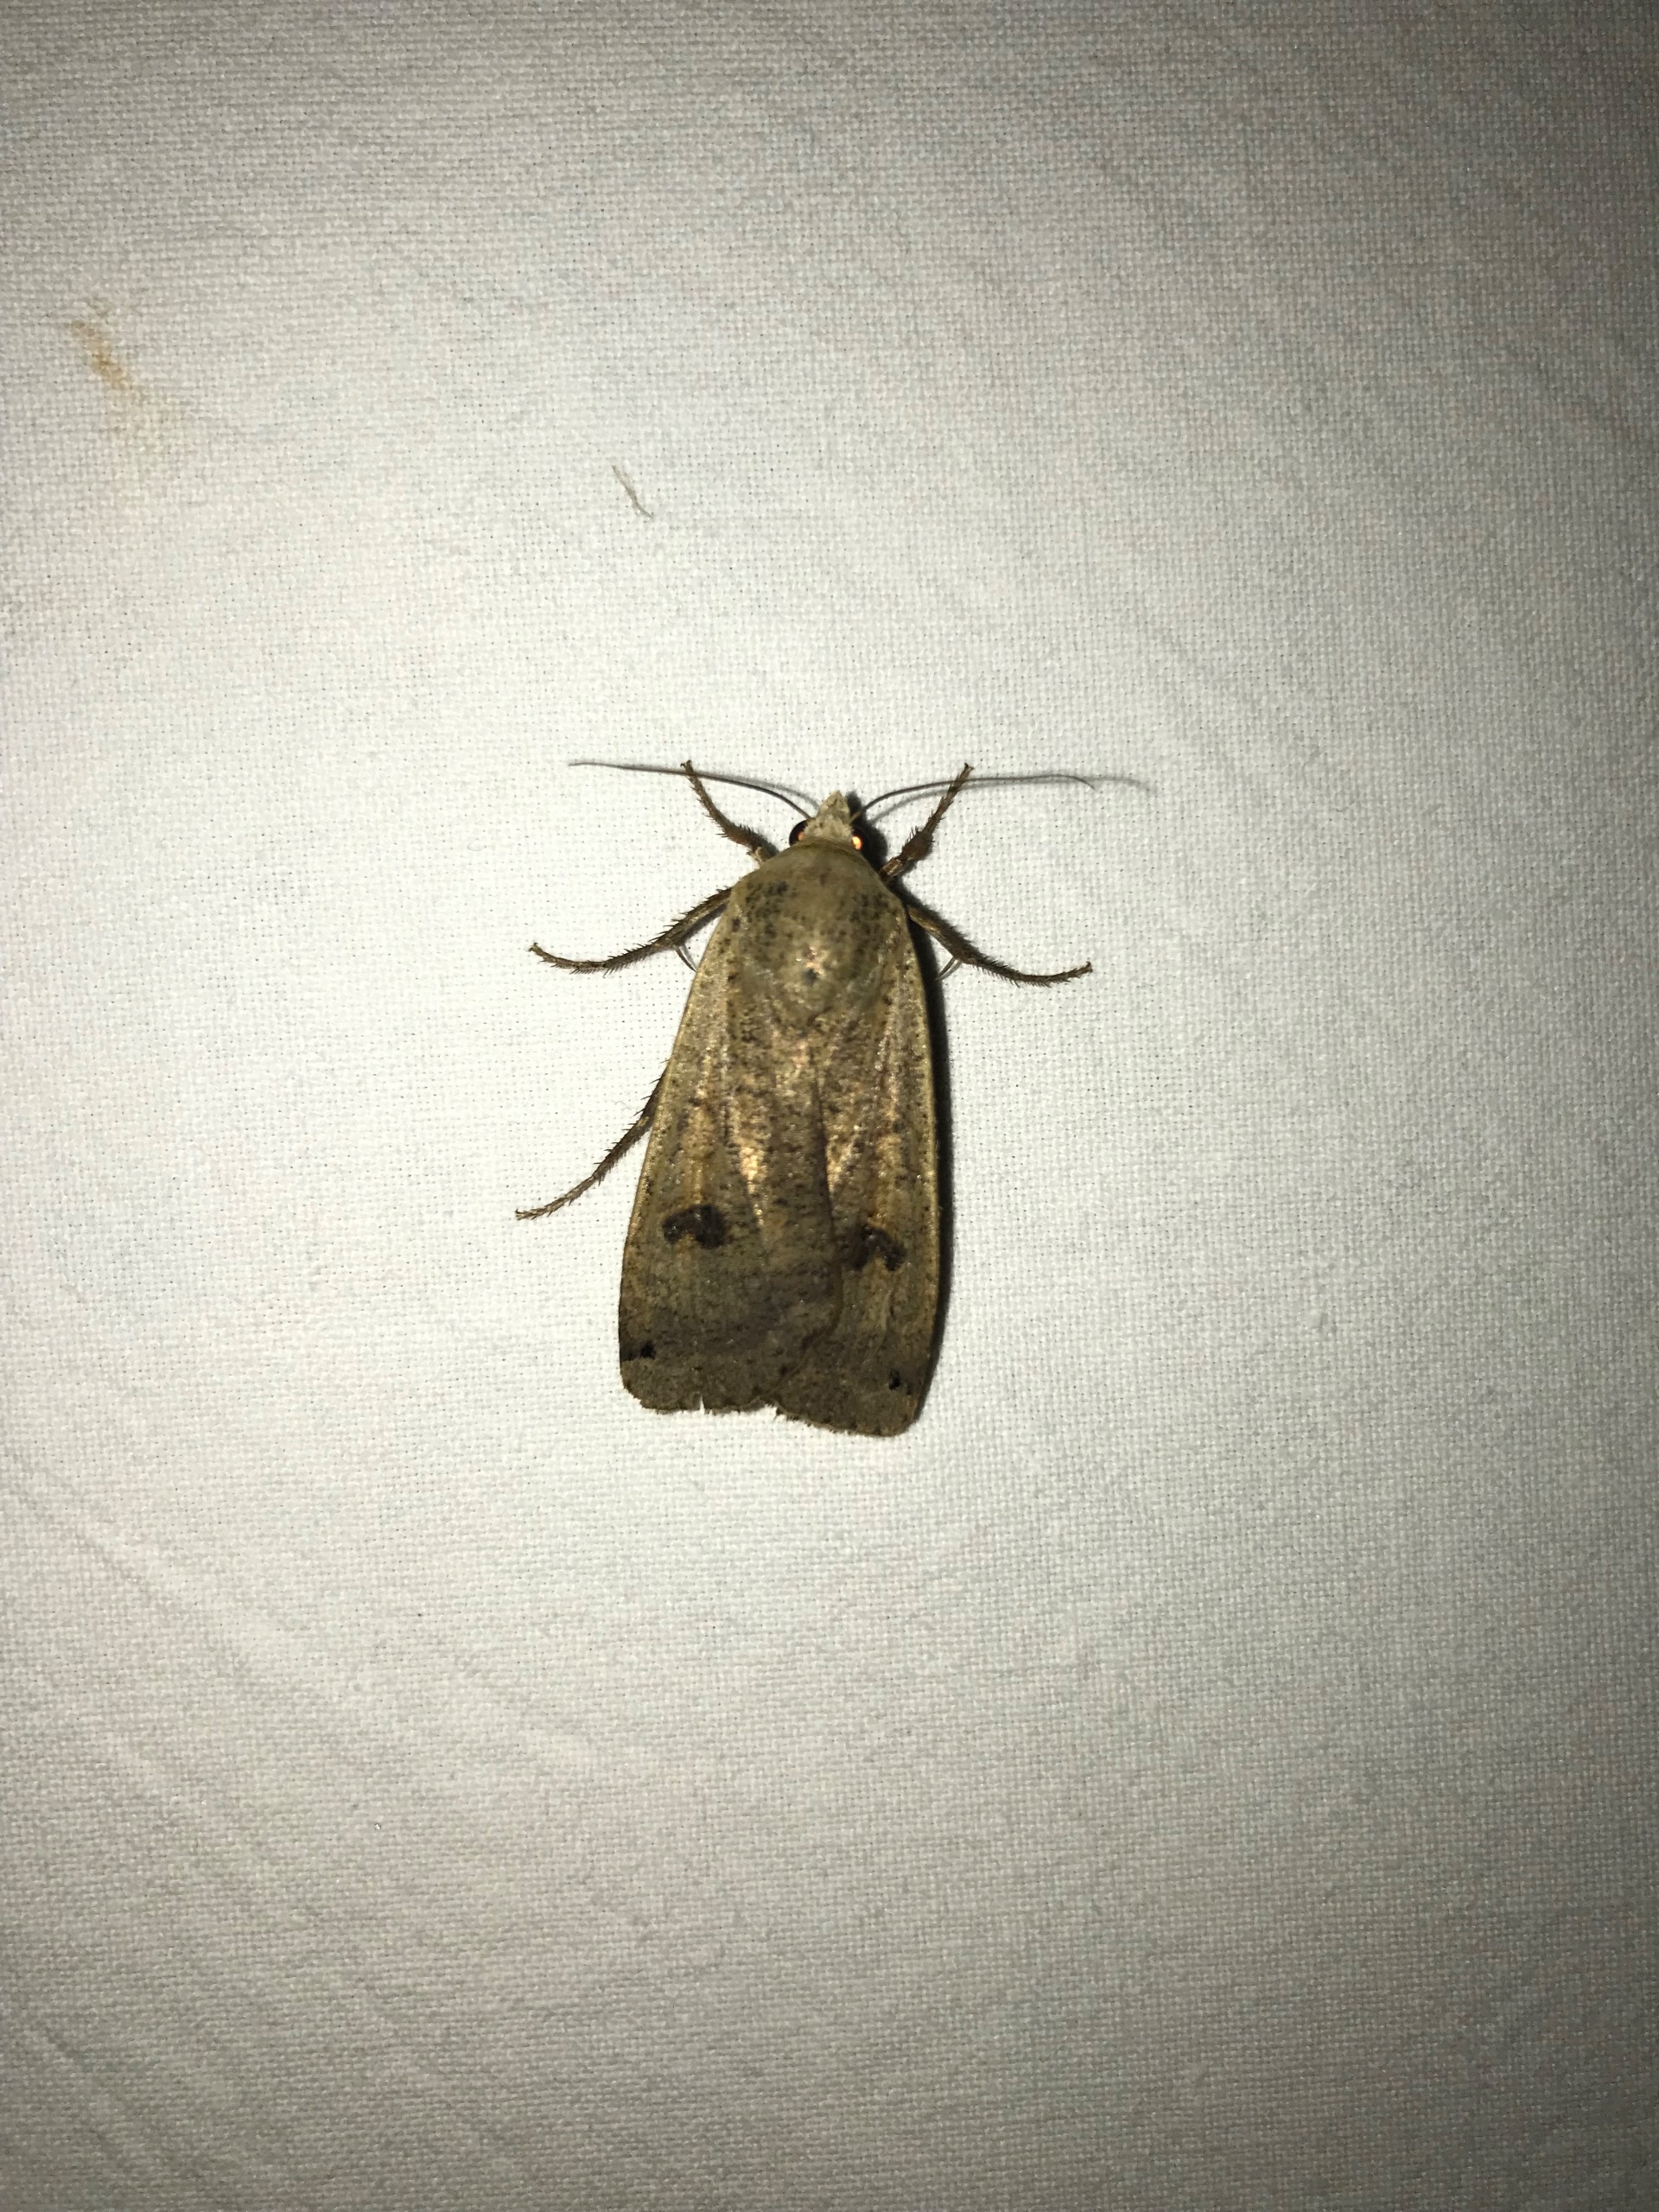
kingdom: Animalia
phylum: Arthropoda
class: Insecta
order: Lepidoptera
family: Noctuidae
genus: Noctua
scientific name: Noctua pronuba
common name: Stor smutugle
